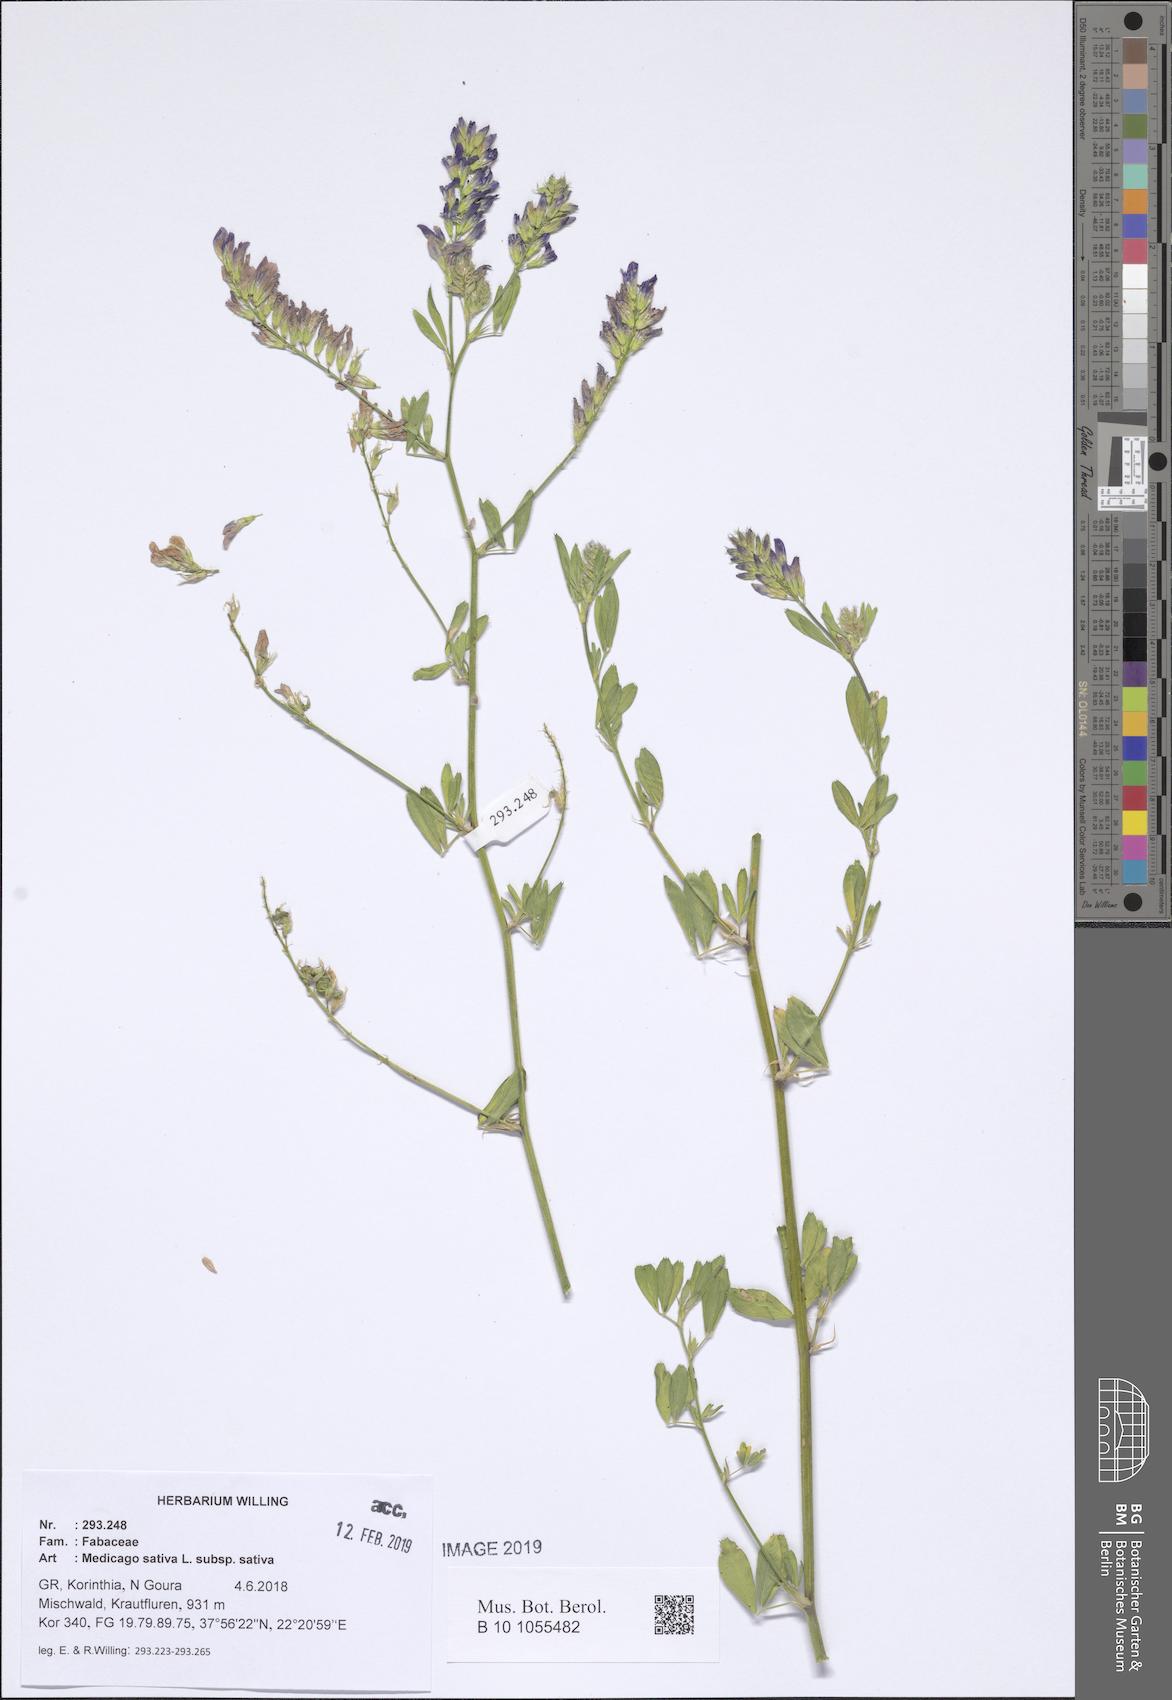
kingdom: Plantae
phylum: Tracheophyta
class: Magnoliopsida
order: Fabales
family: Fabaceae
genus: Medicago
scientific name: Medicago sativa
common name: Alfalfa
